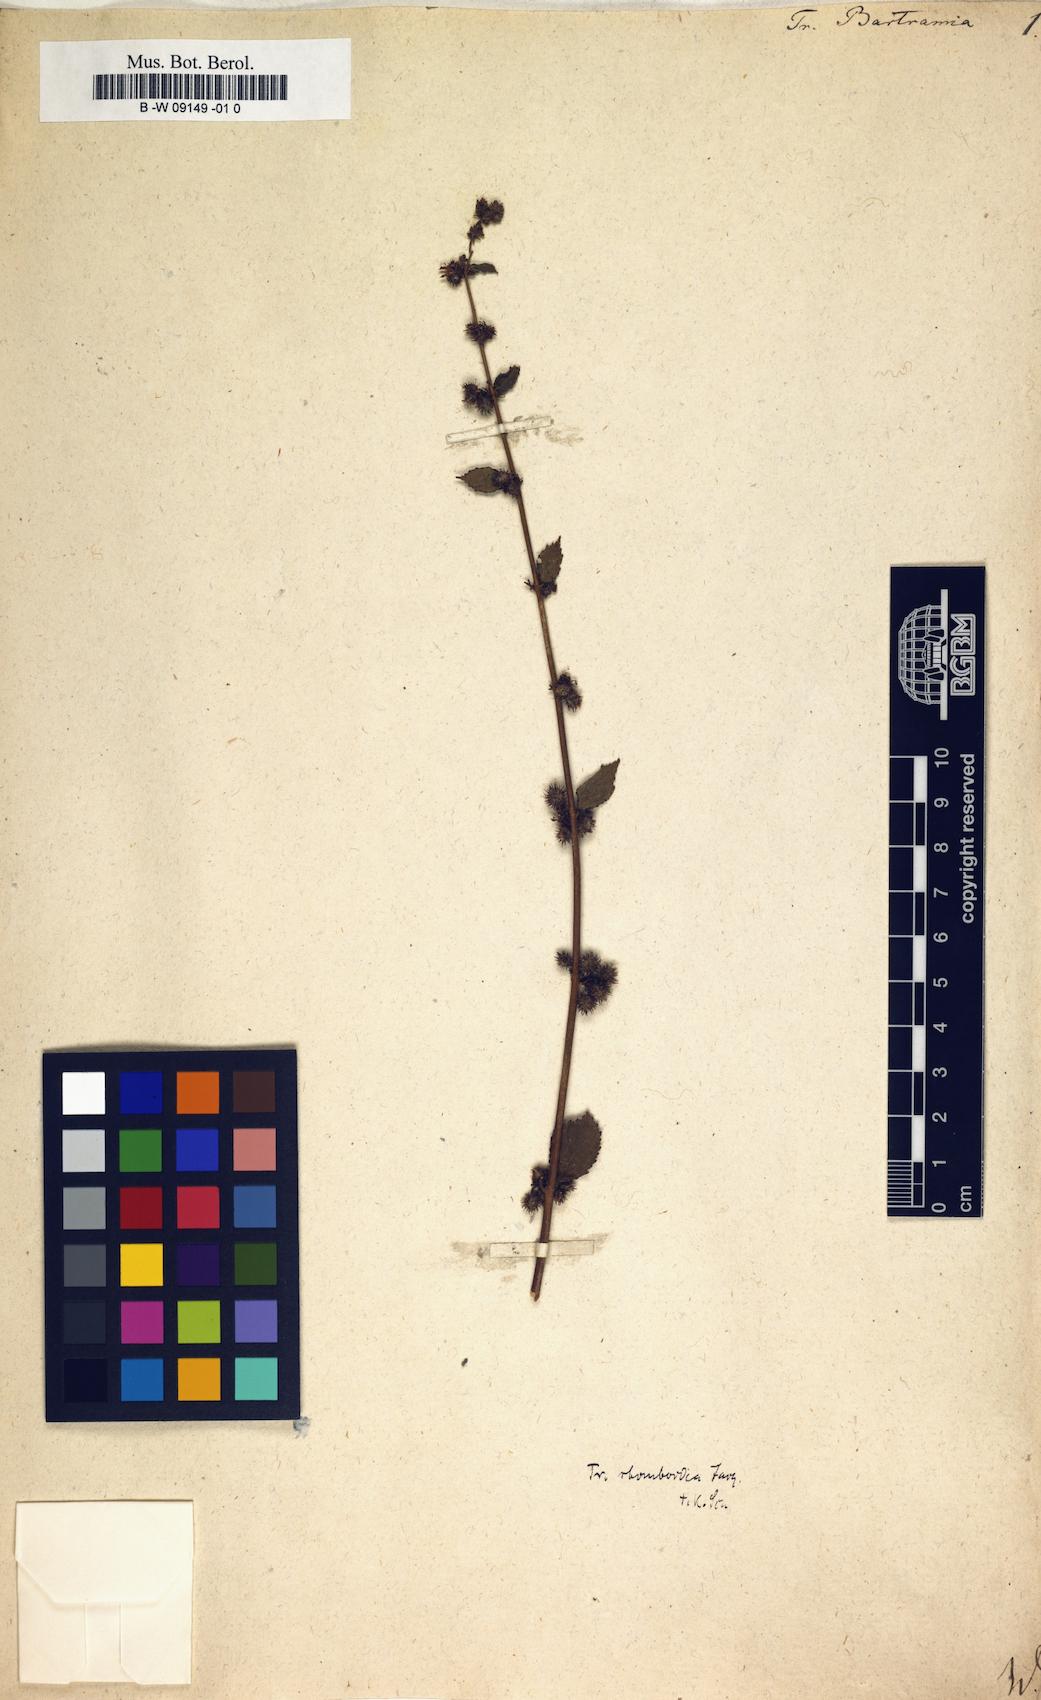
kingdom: Plantae
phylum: Tracheophyta
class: Magnoliopsida
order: Malvales
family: Malvaceae
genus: Triumfetta
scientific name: Triumfetta rhomboidea
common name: Diamond burbark
